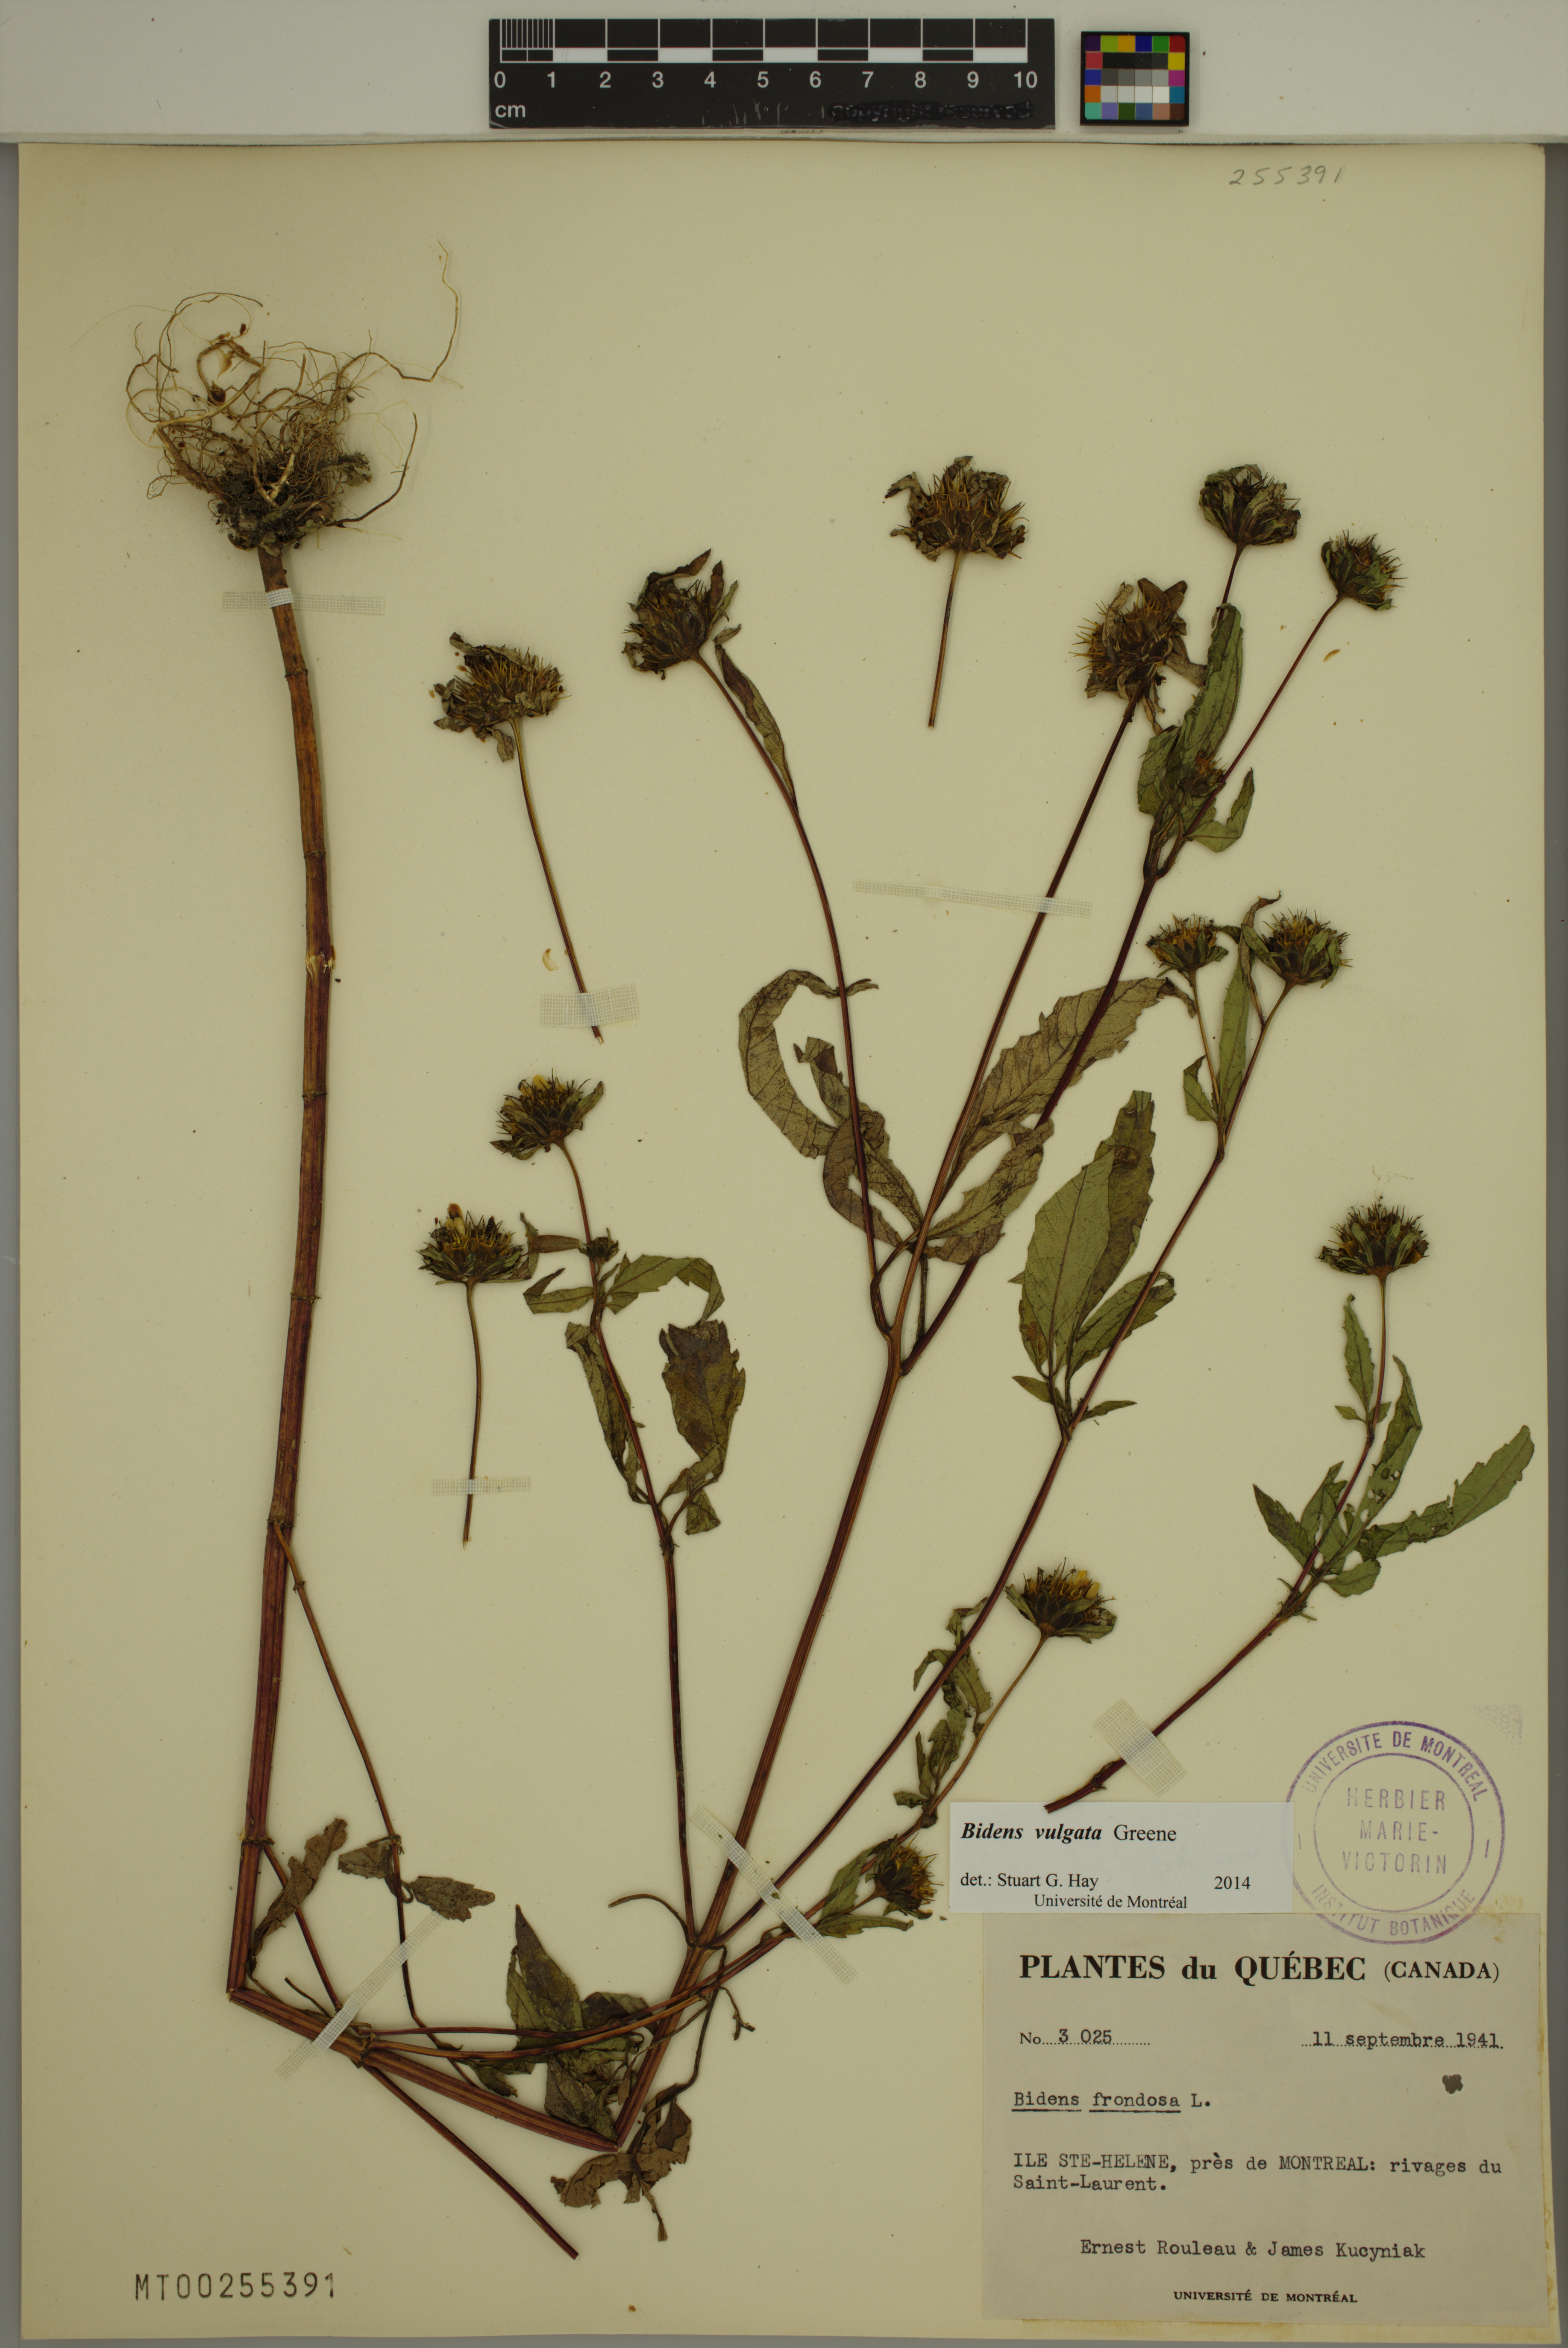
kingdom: Plantae
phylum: Tracheophyta
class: Magnoliopsida
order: Asterales
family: Asteraceae
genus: Bidens
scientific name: Bidens vulgata
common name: Tall beggarticks
